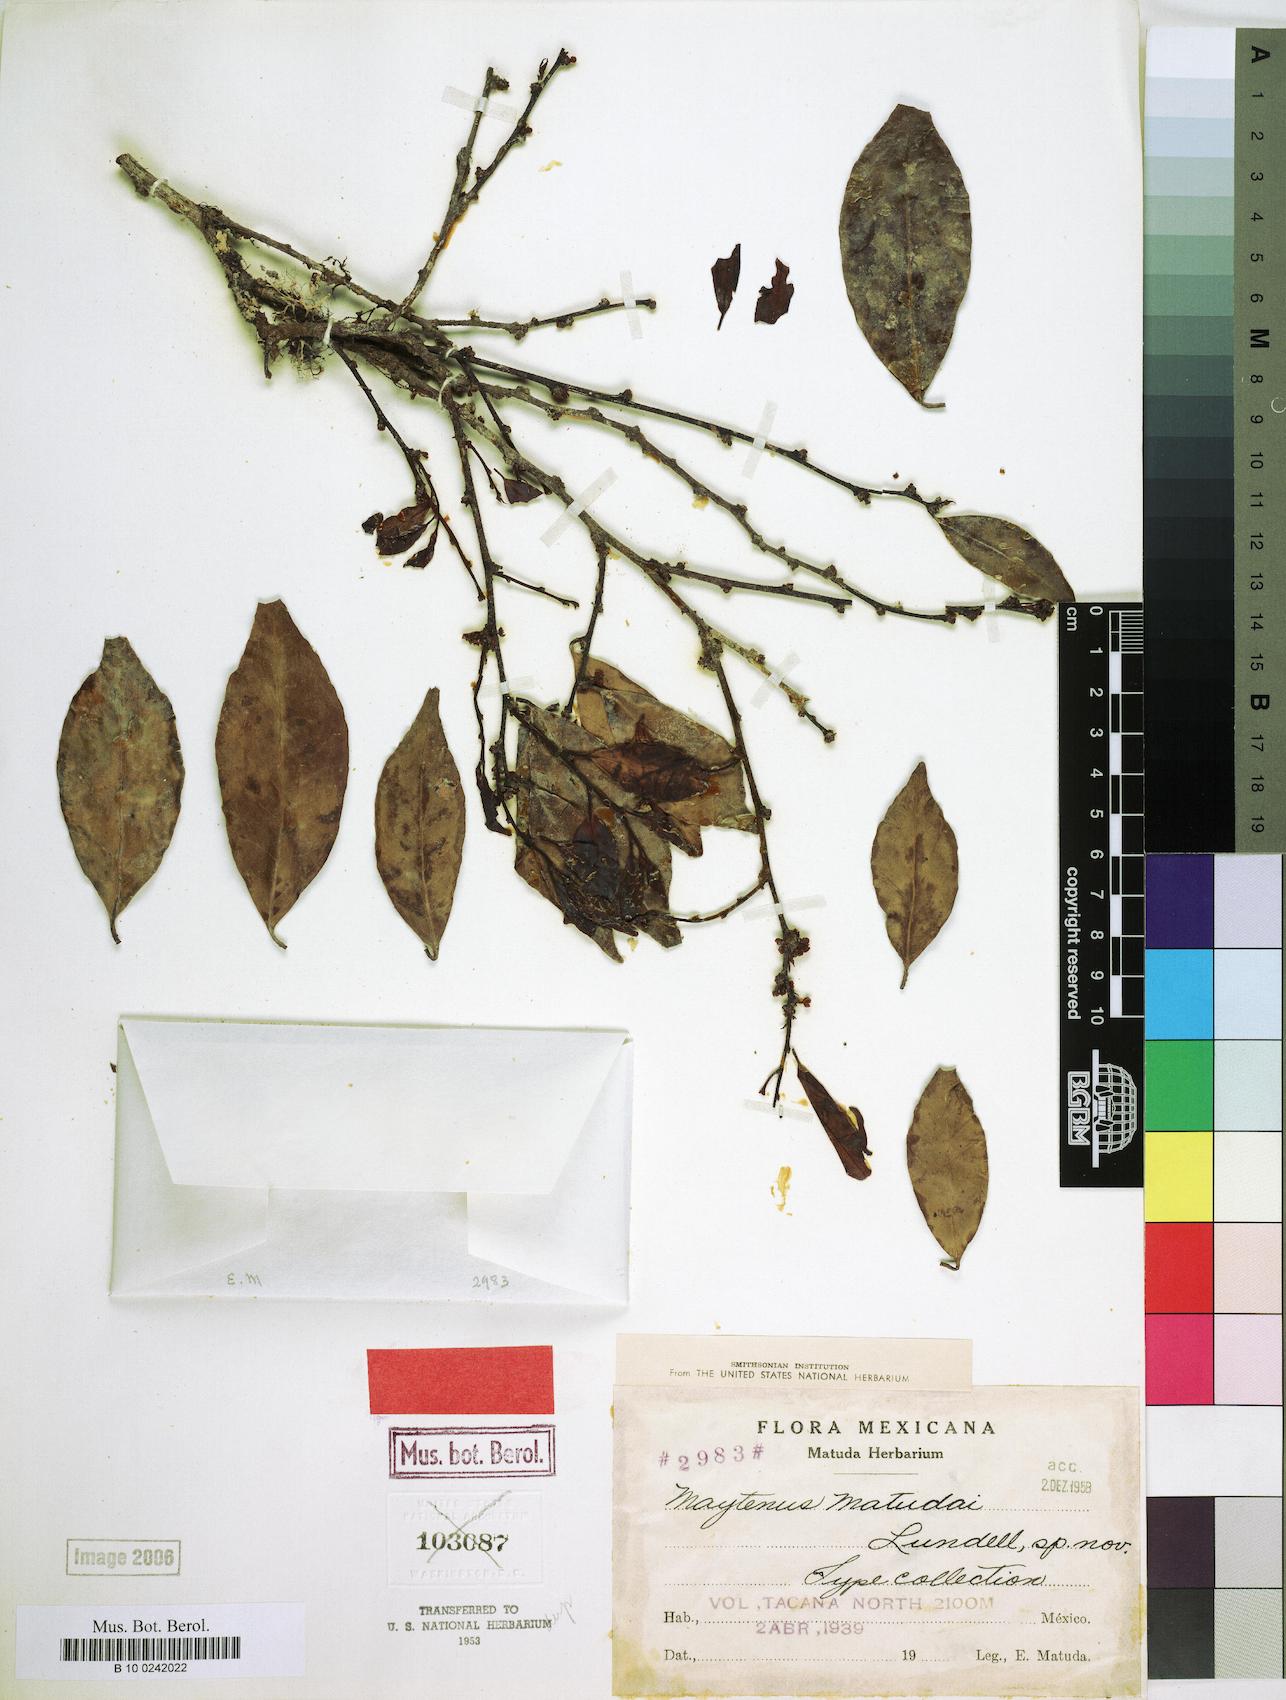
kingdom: Plantae
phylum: Tracheophyta
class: Magnoliopsida
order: Celastrales
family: Celastraceae
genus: Monteverdia
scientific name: Monteverdia matudae
